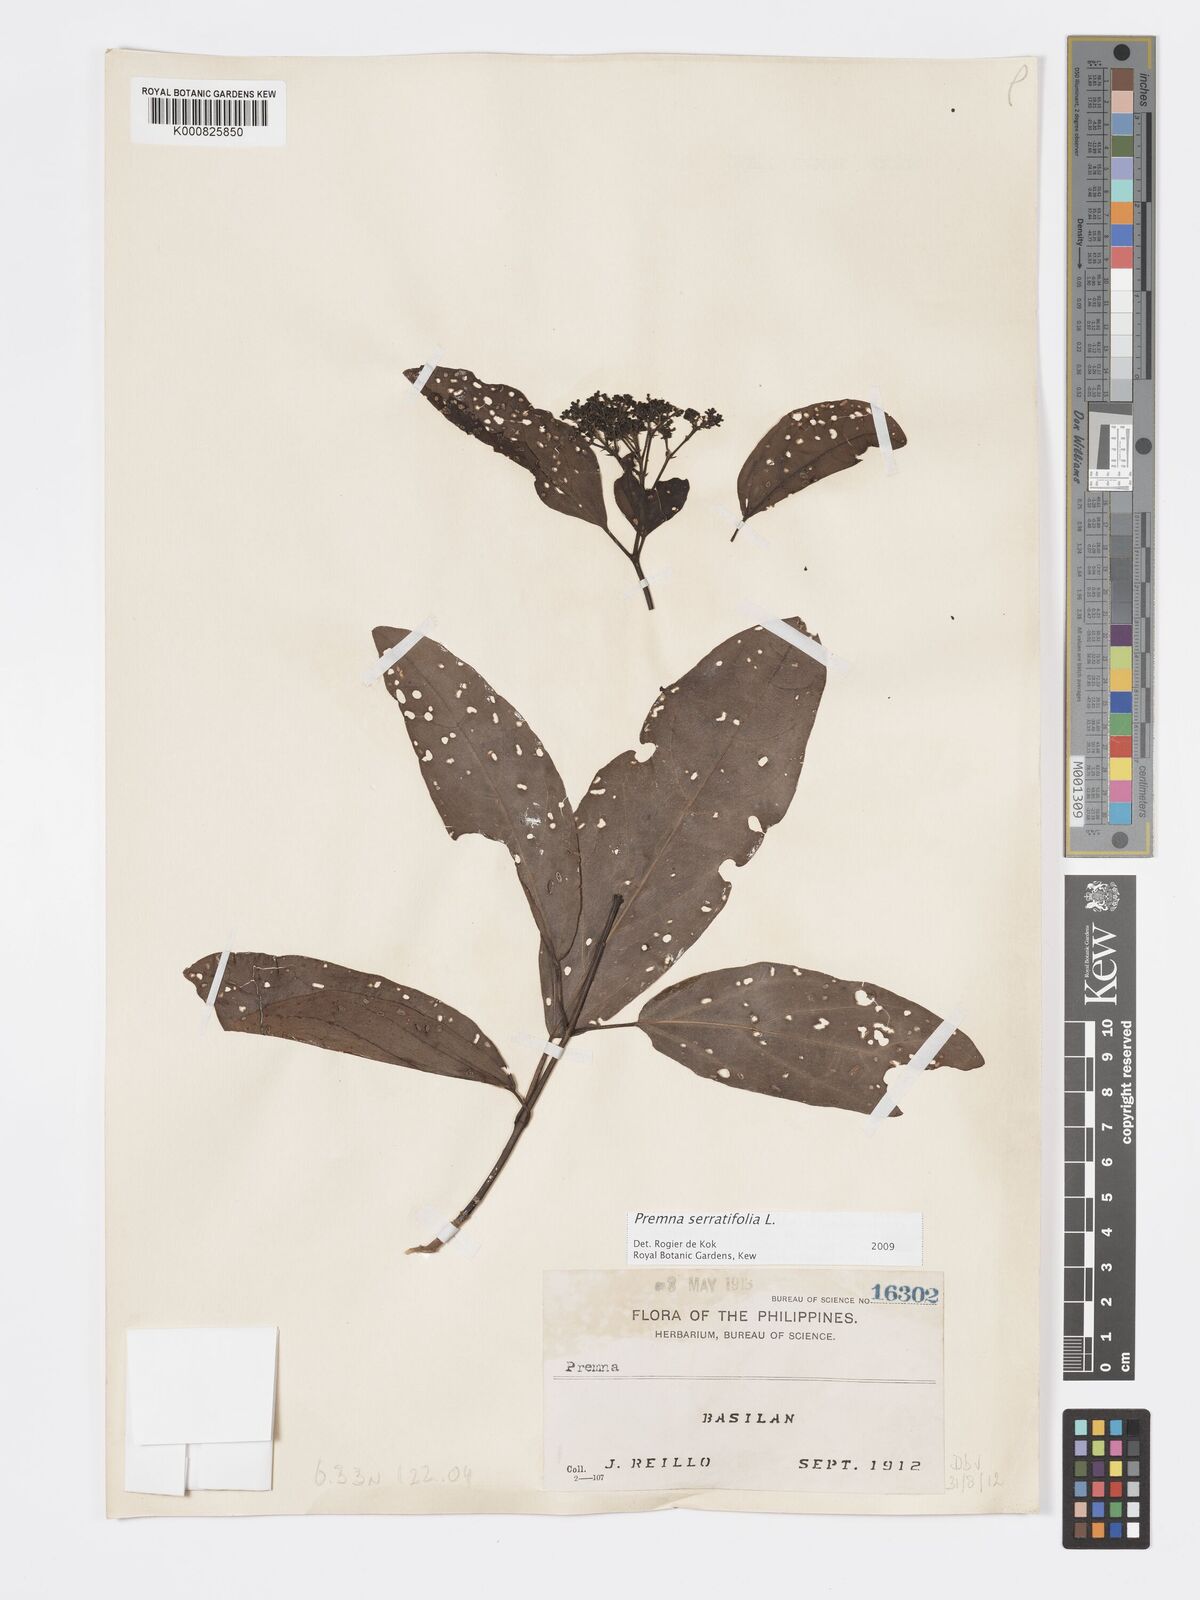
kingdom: Plantae
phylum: Tracheophyta
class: Magnoliopsida
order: Lamiales
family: Lamiaceae
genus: Premna
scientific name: Premna serratifolia
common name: Bastard guelder
